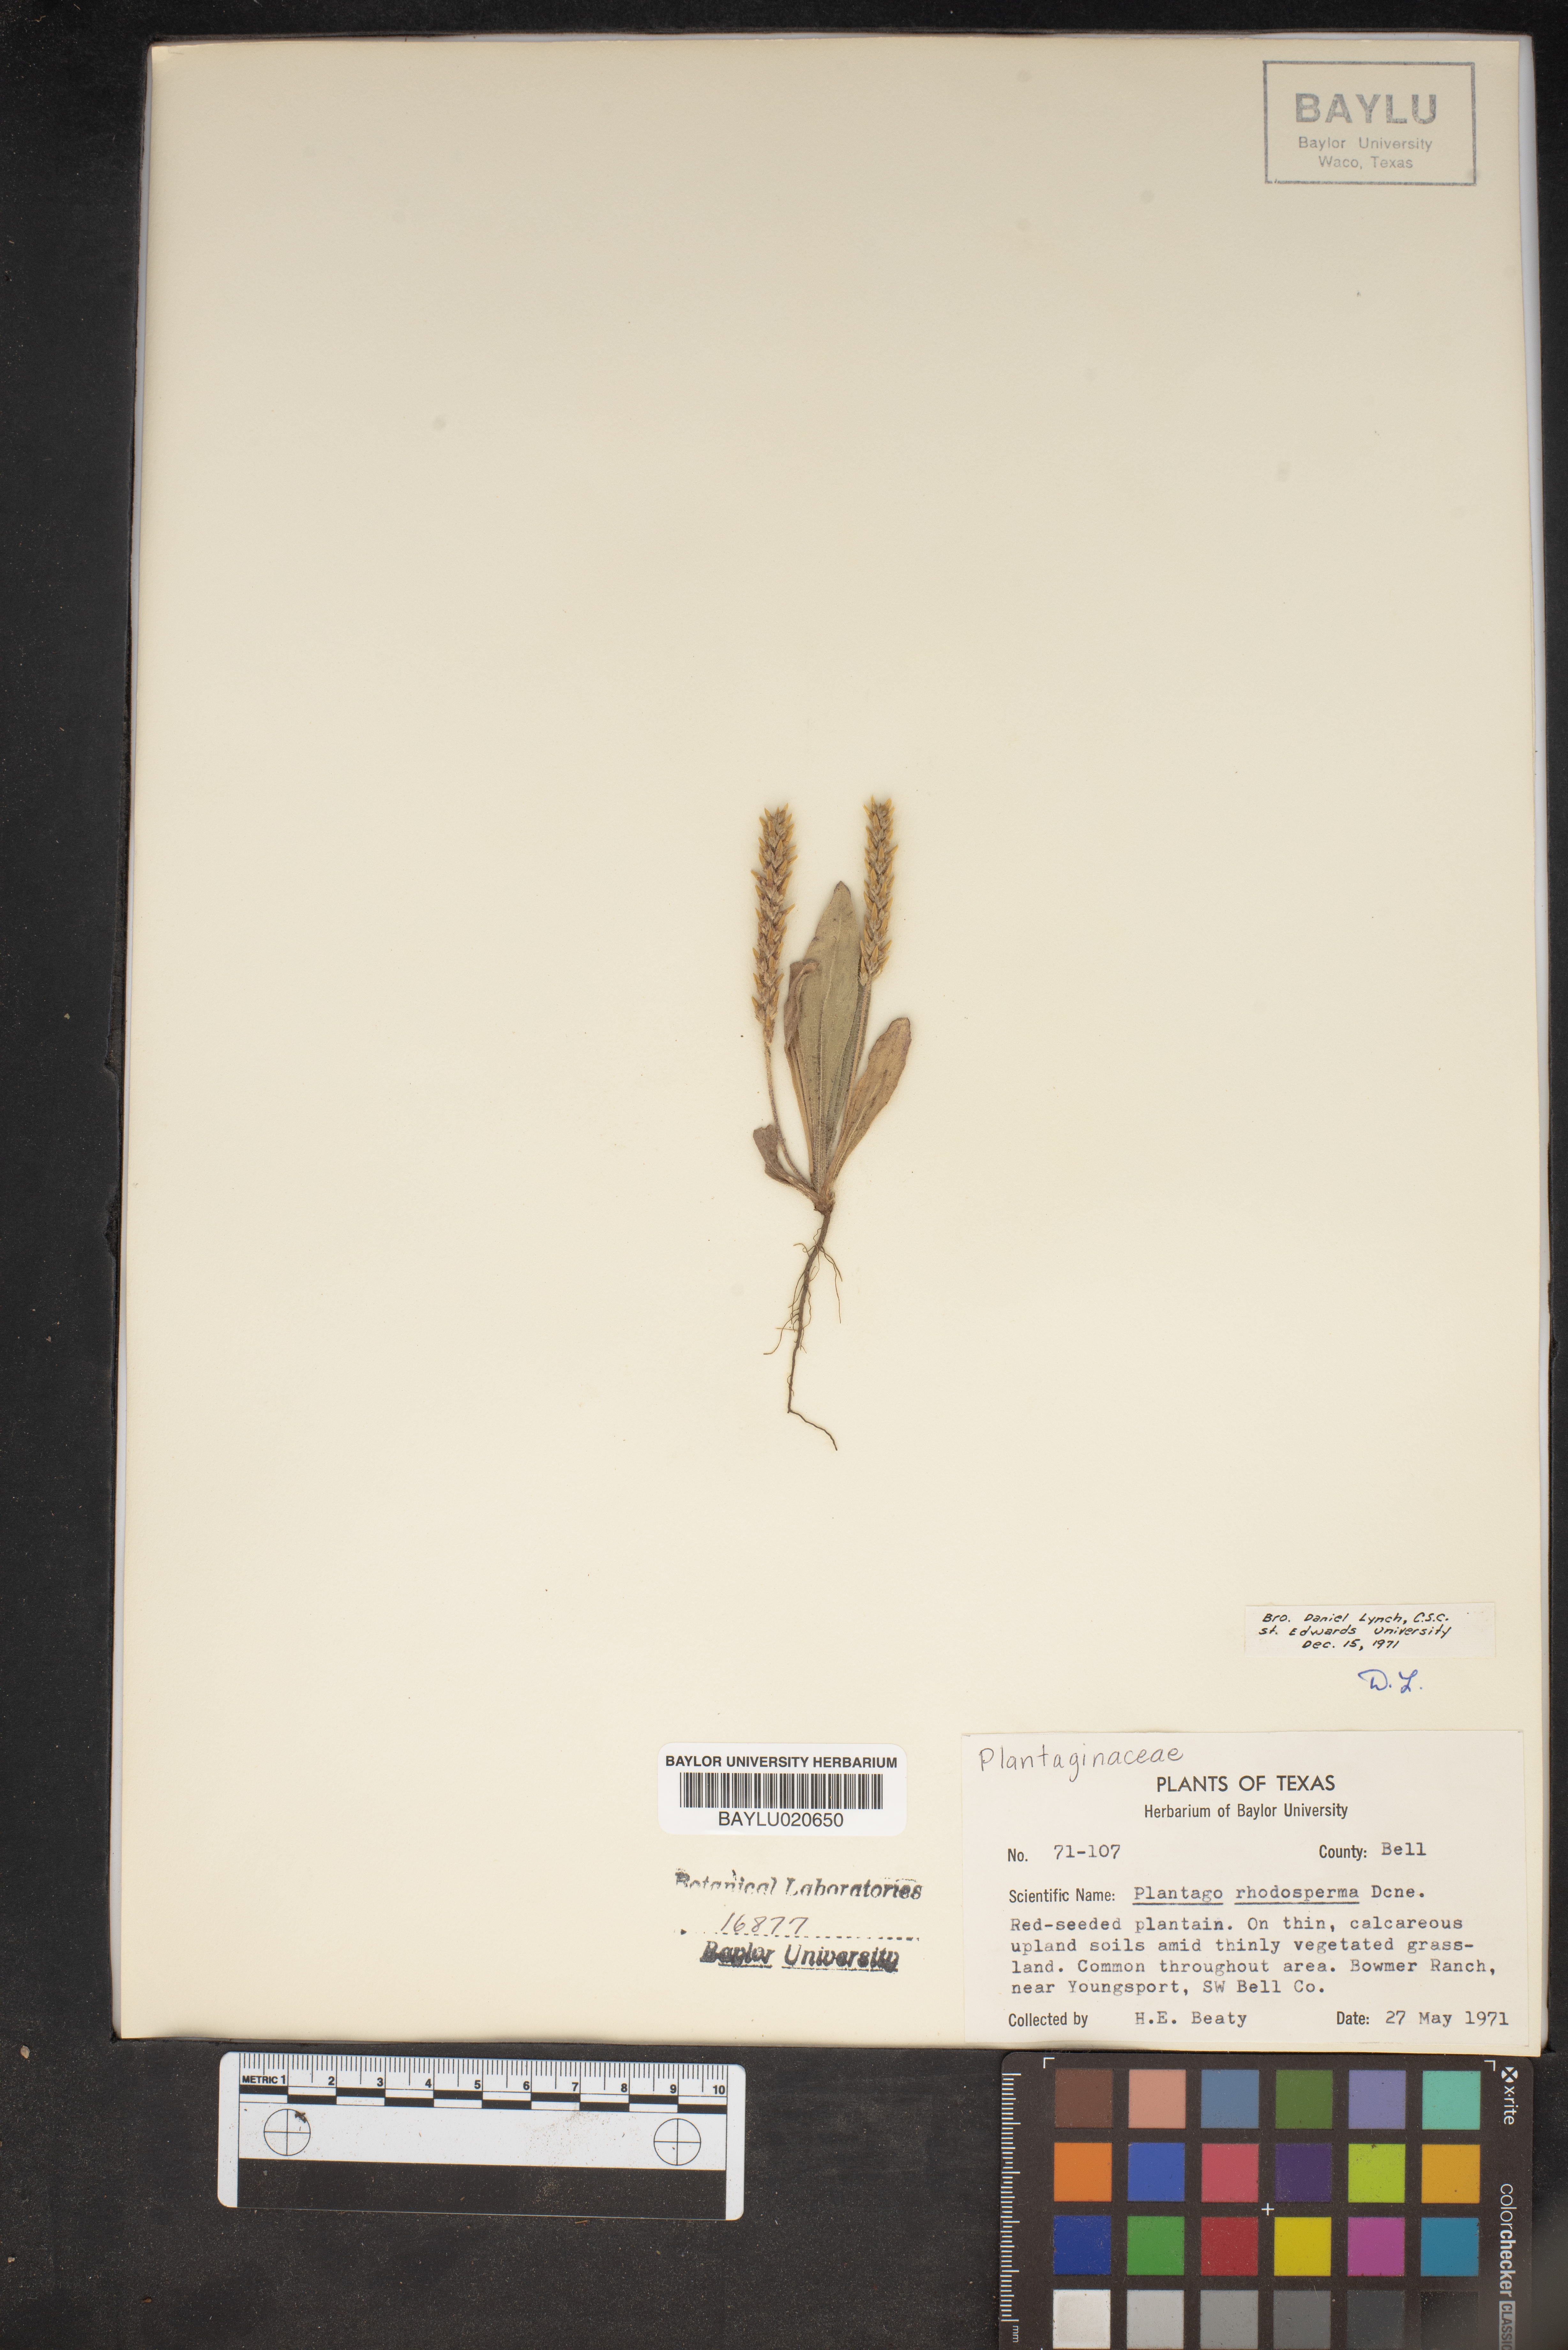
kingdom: Plantae
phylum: Tracheophyta
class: Magnoliopsida
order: Lamiales
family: Plantaginaceae
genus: Plantago
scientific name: Plantago rhodosperma
